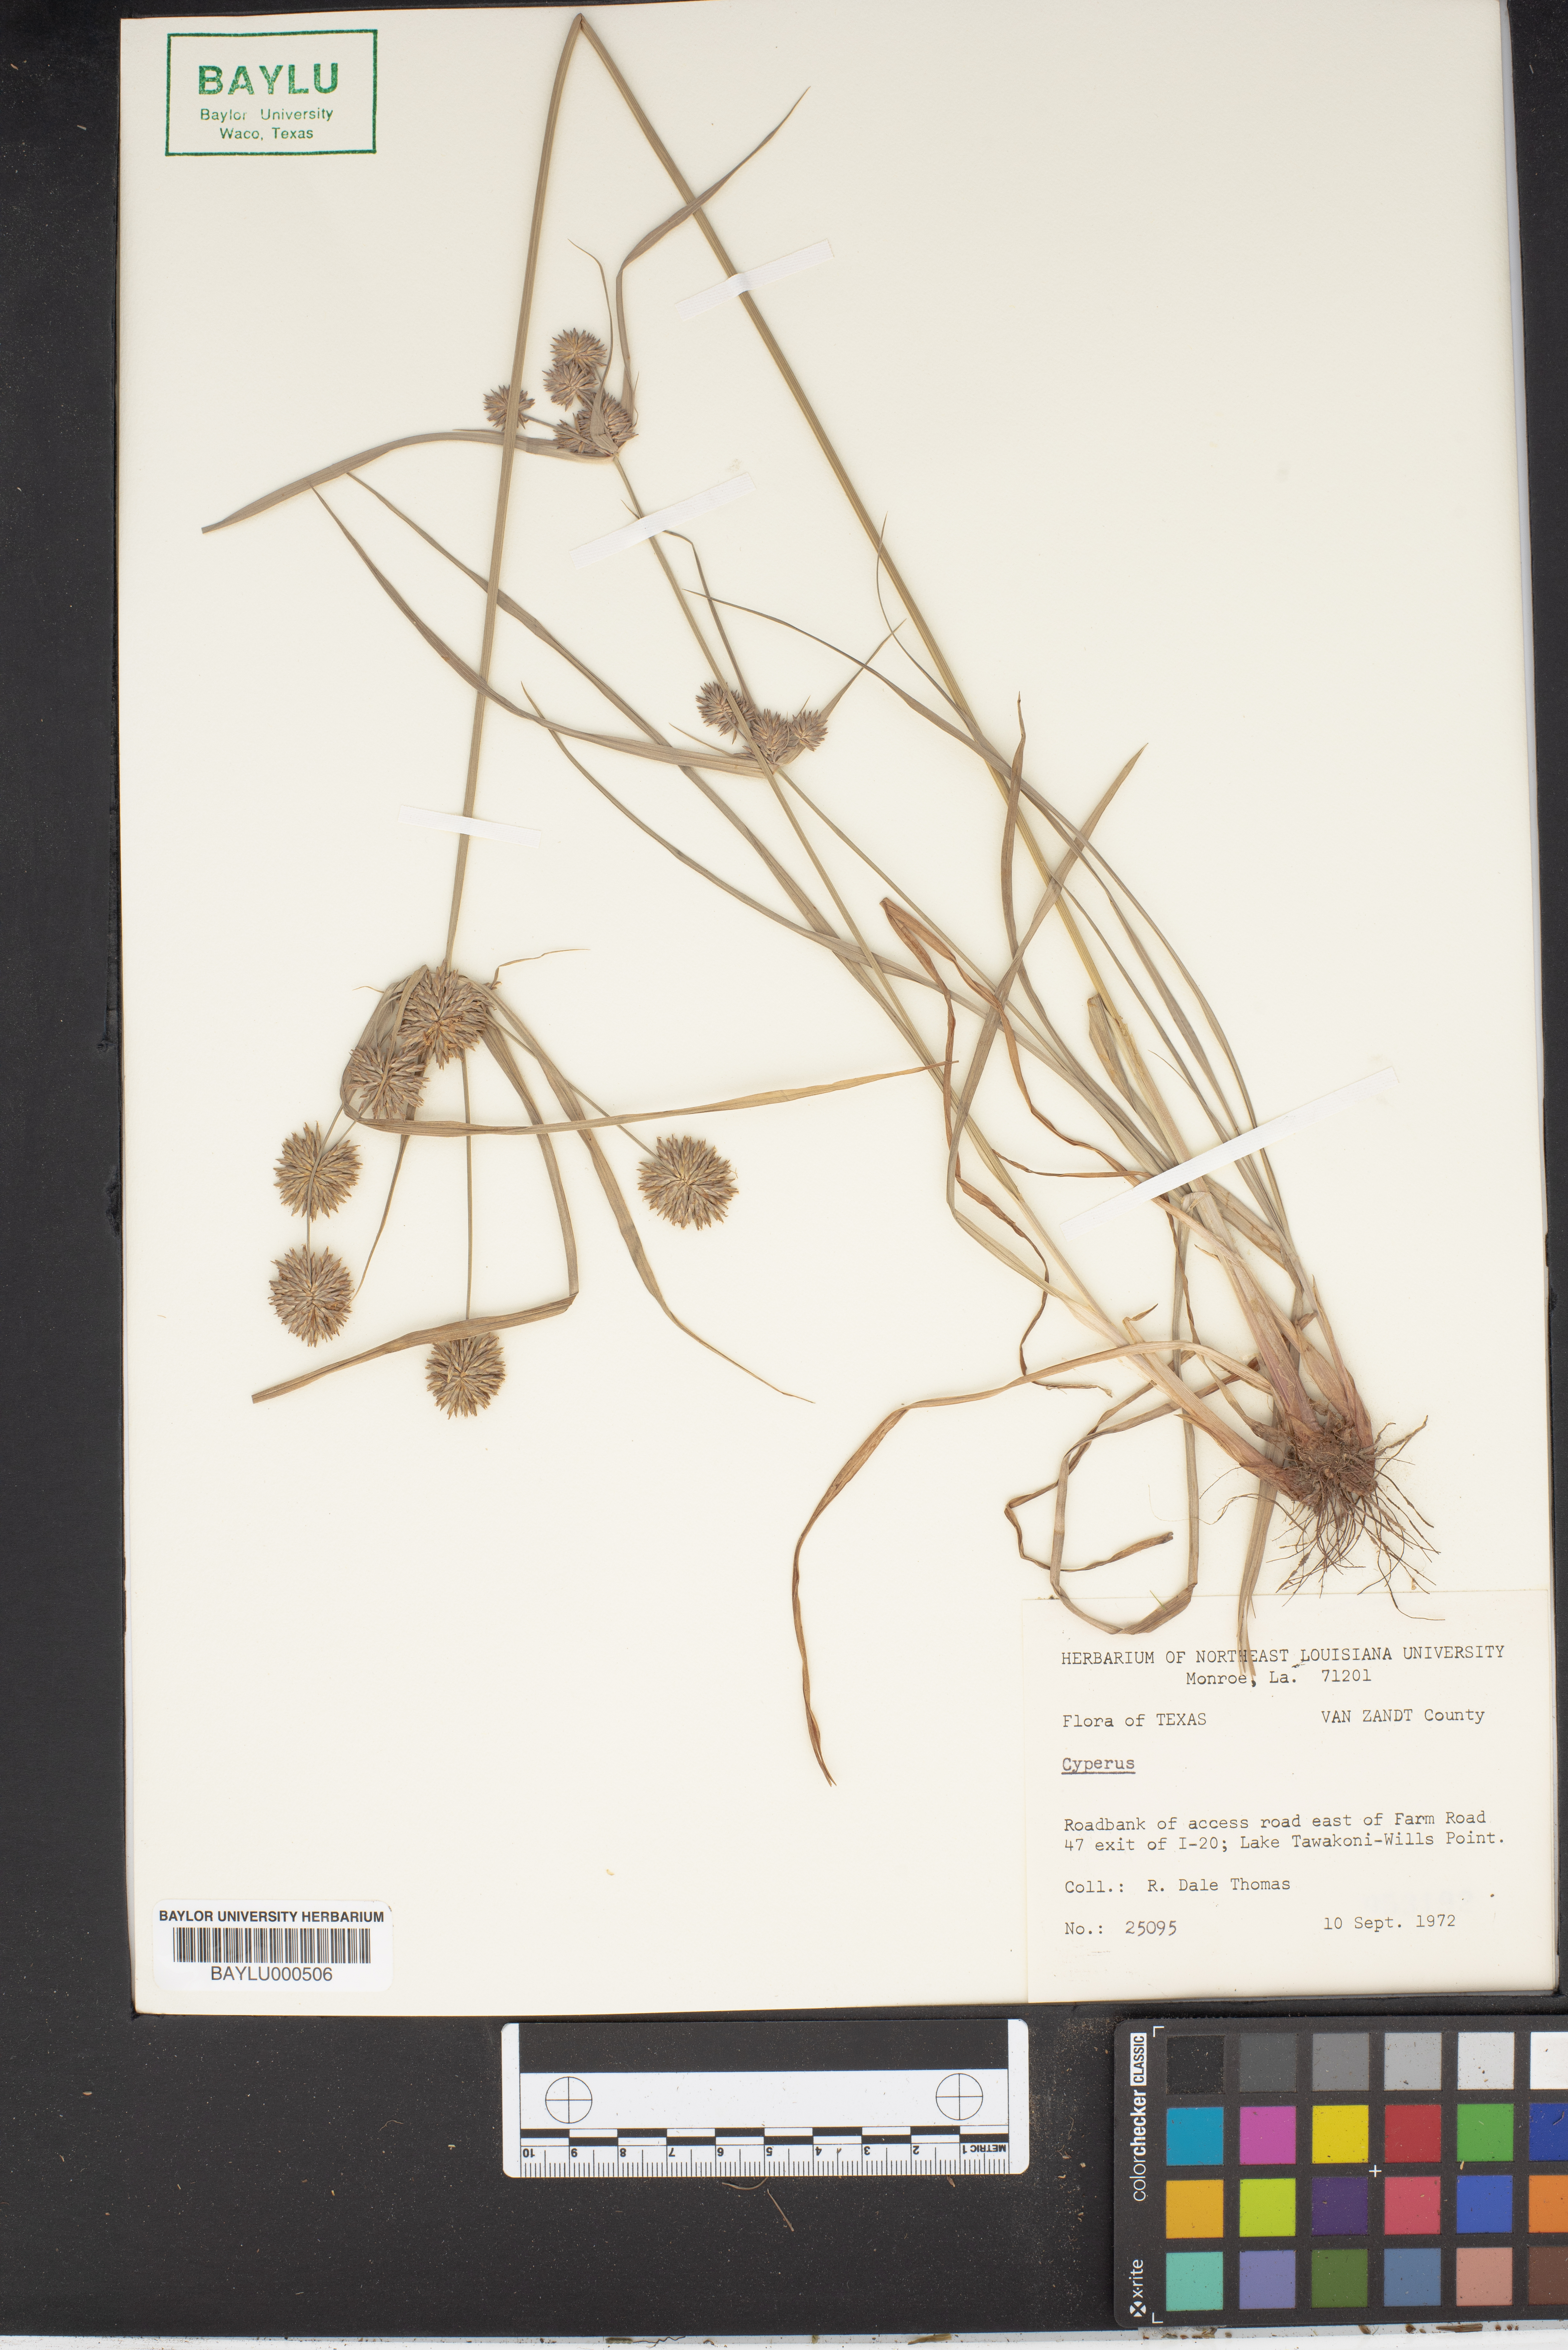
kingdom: Plantae
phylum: Tracheophyta
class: Liliopsida
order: Poales
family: Cyperaceae
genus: Cyperus
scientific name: Cyperus
